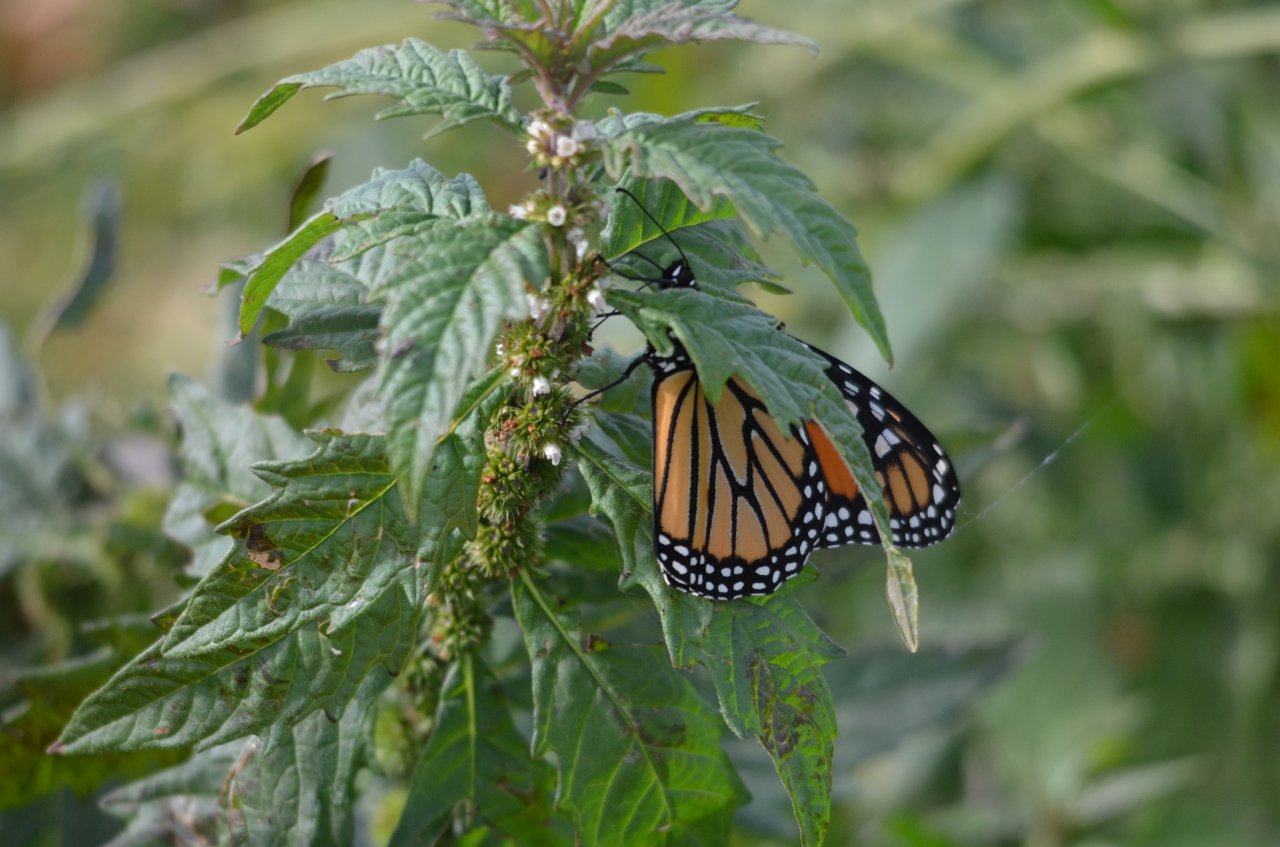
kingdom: Animalia
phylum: Arthropoda
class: Insecta
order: Lepidoptera
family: Nymphalidae
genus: Danaus
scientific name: Danaus plexippus
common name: Monarch
